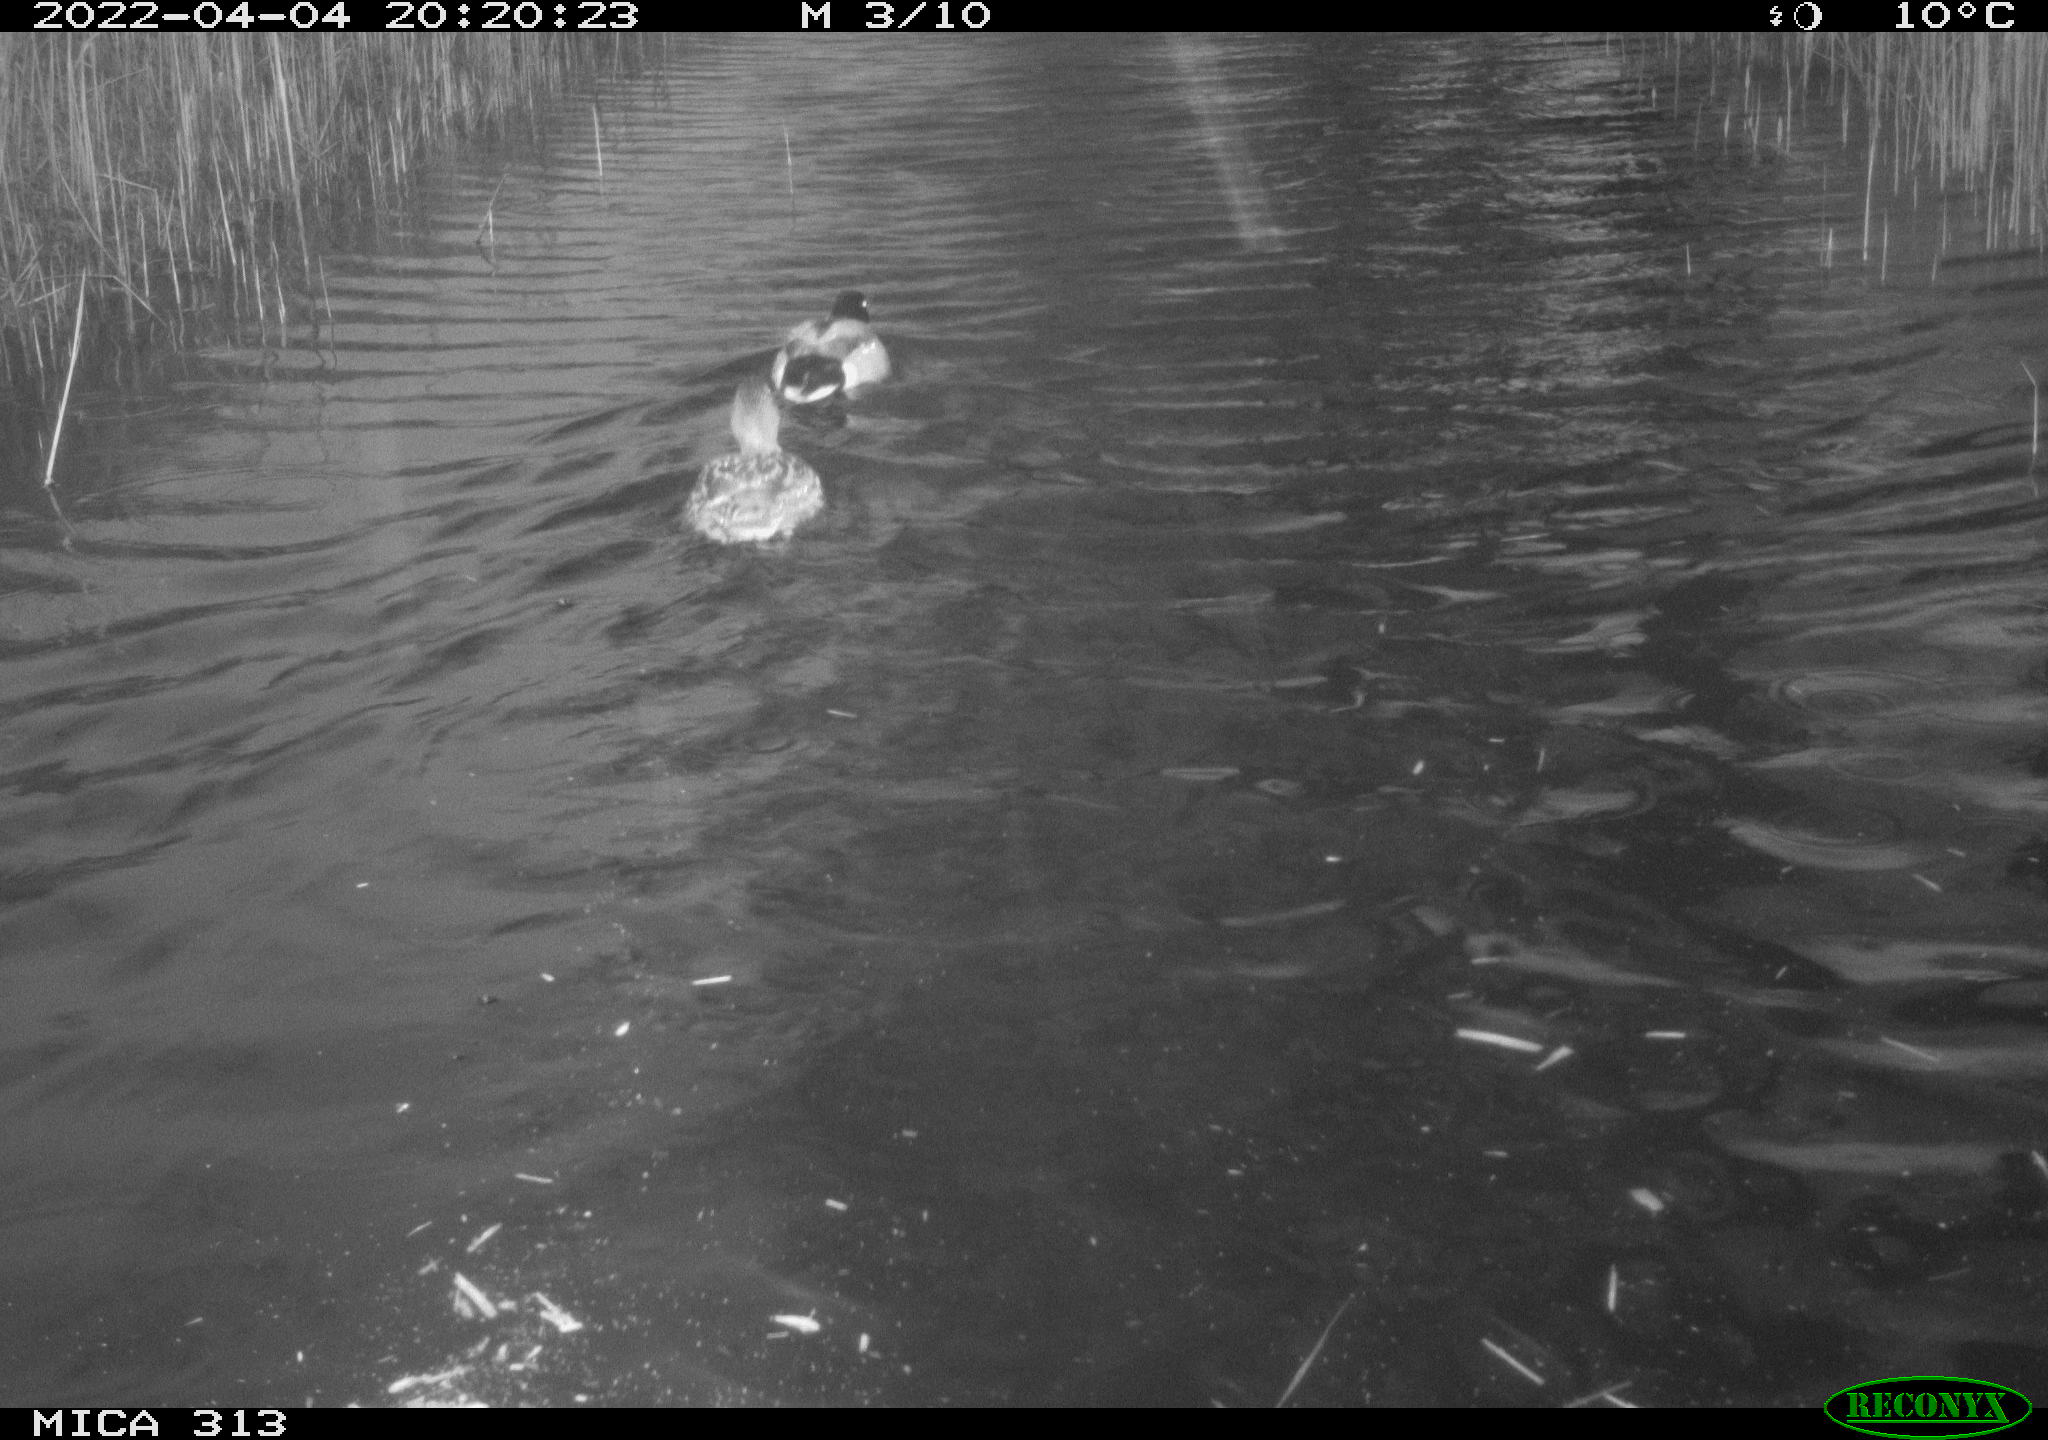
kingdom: Animalia
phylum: Chordata
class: Aves
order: Anseriformes
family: Anatidae
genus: Anas
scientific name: Anas platyrhynchos
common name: Mallard
